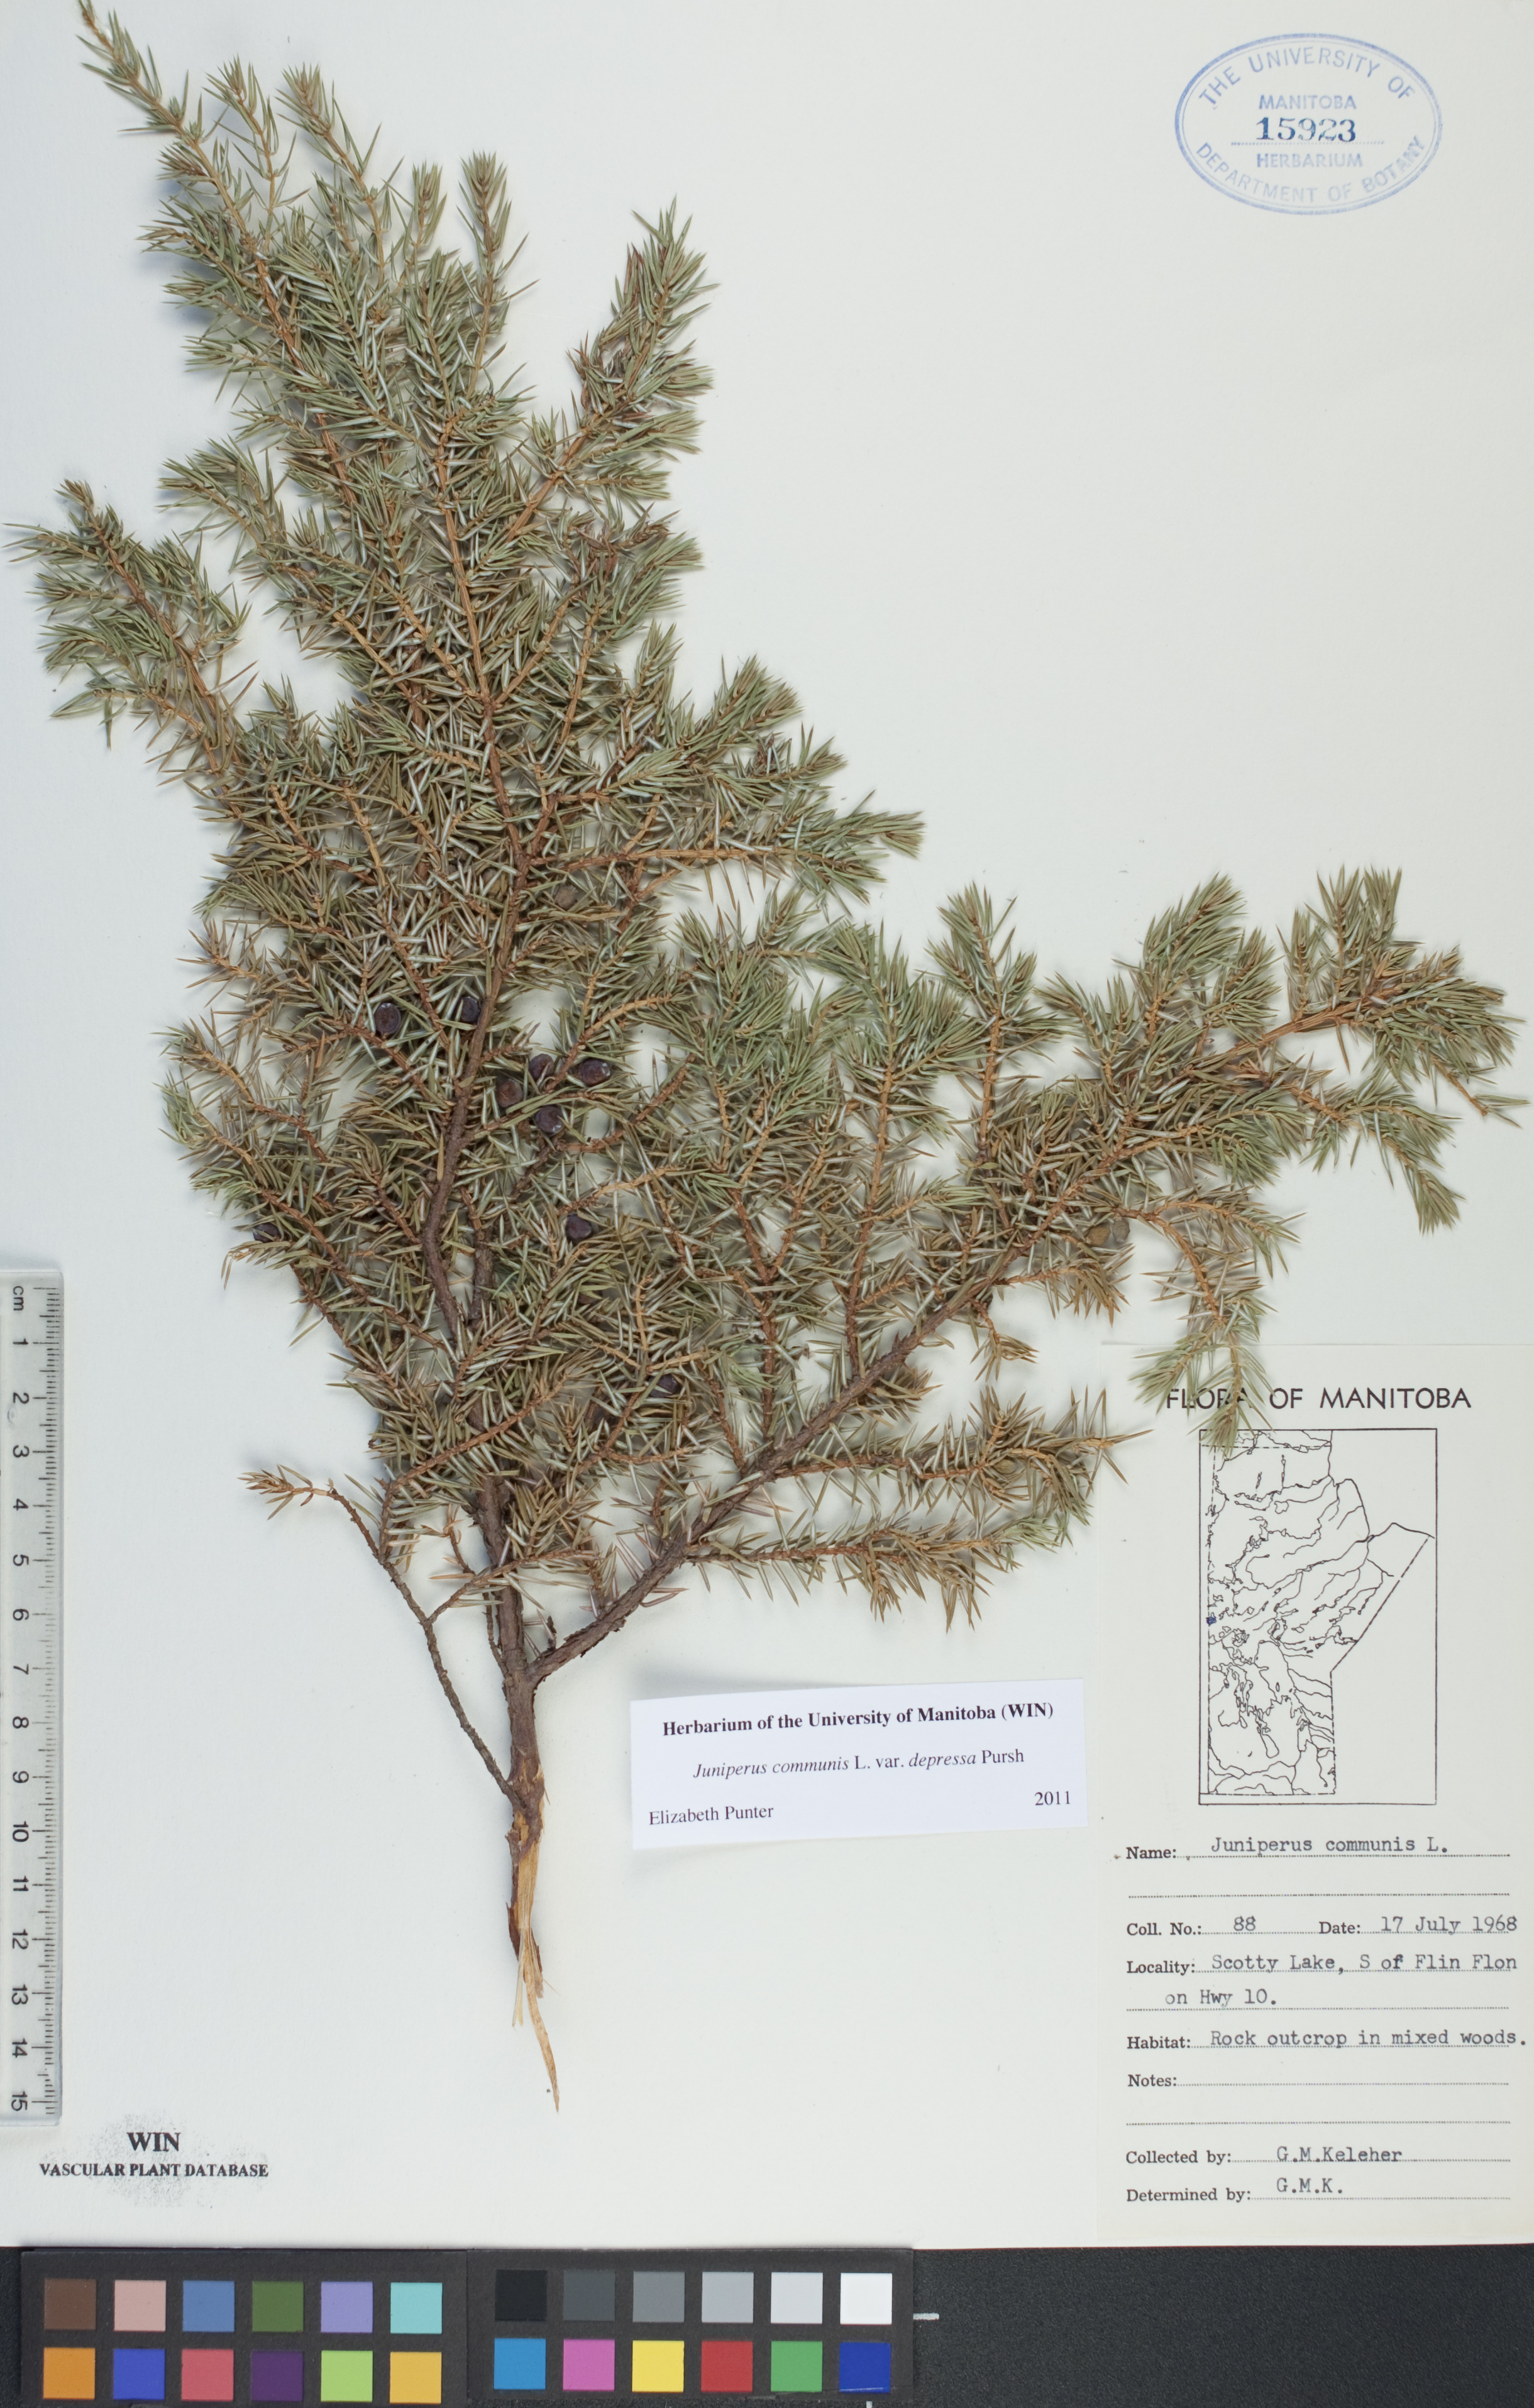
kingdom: Plantae
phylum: Tracheophyta
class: Pinopsida
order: Pinales
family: Cupressaceae
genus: Juniperus
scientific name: Juniperus communis
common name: Common juniper
